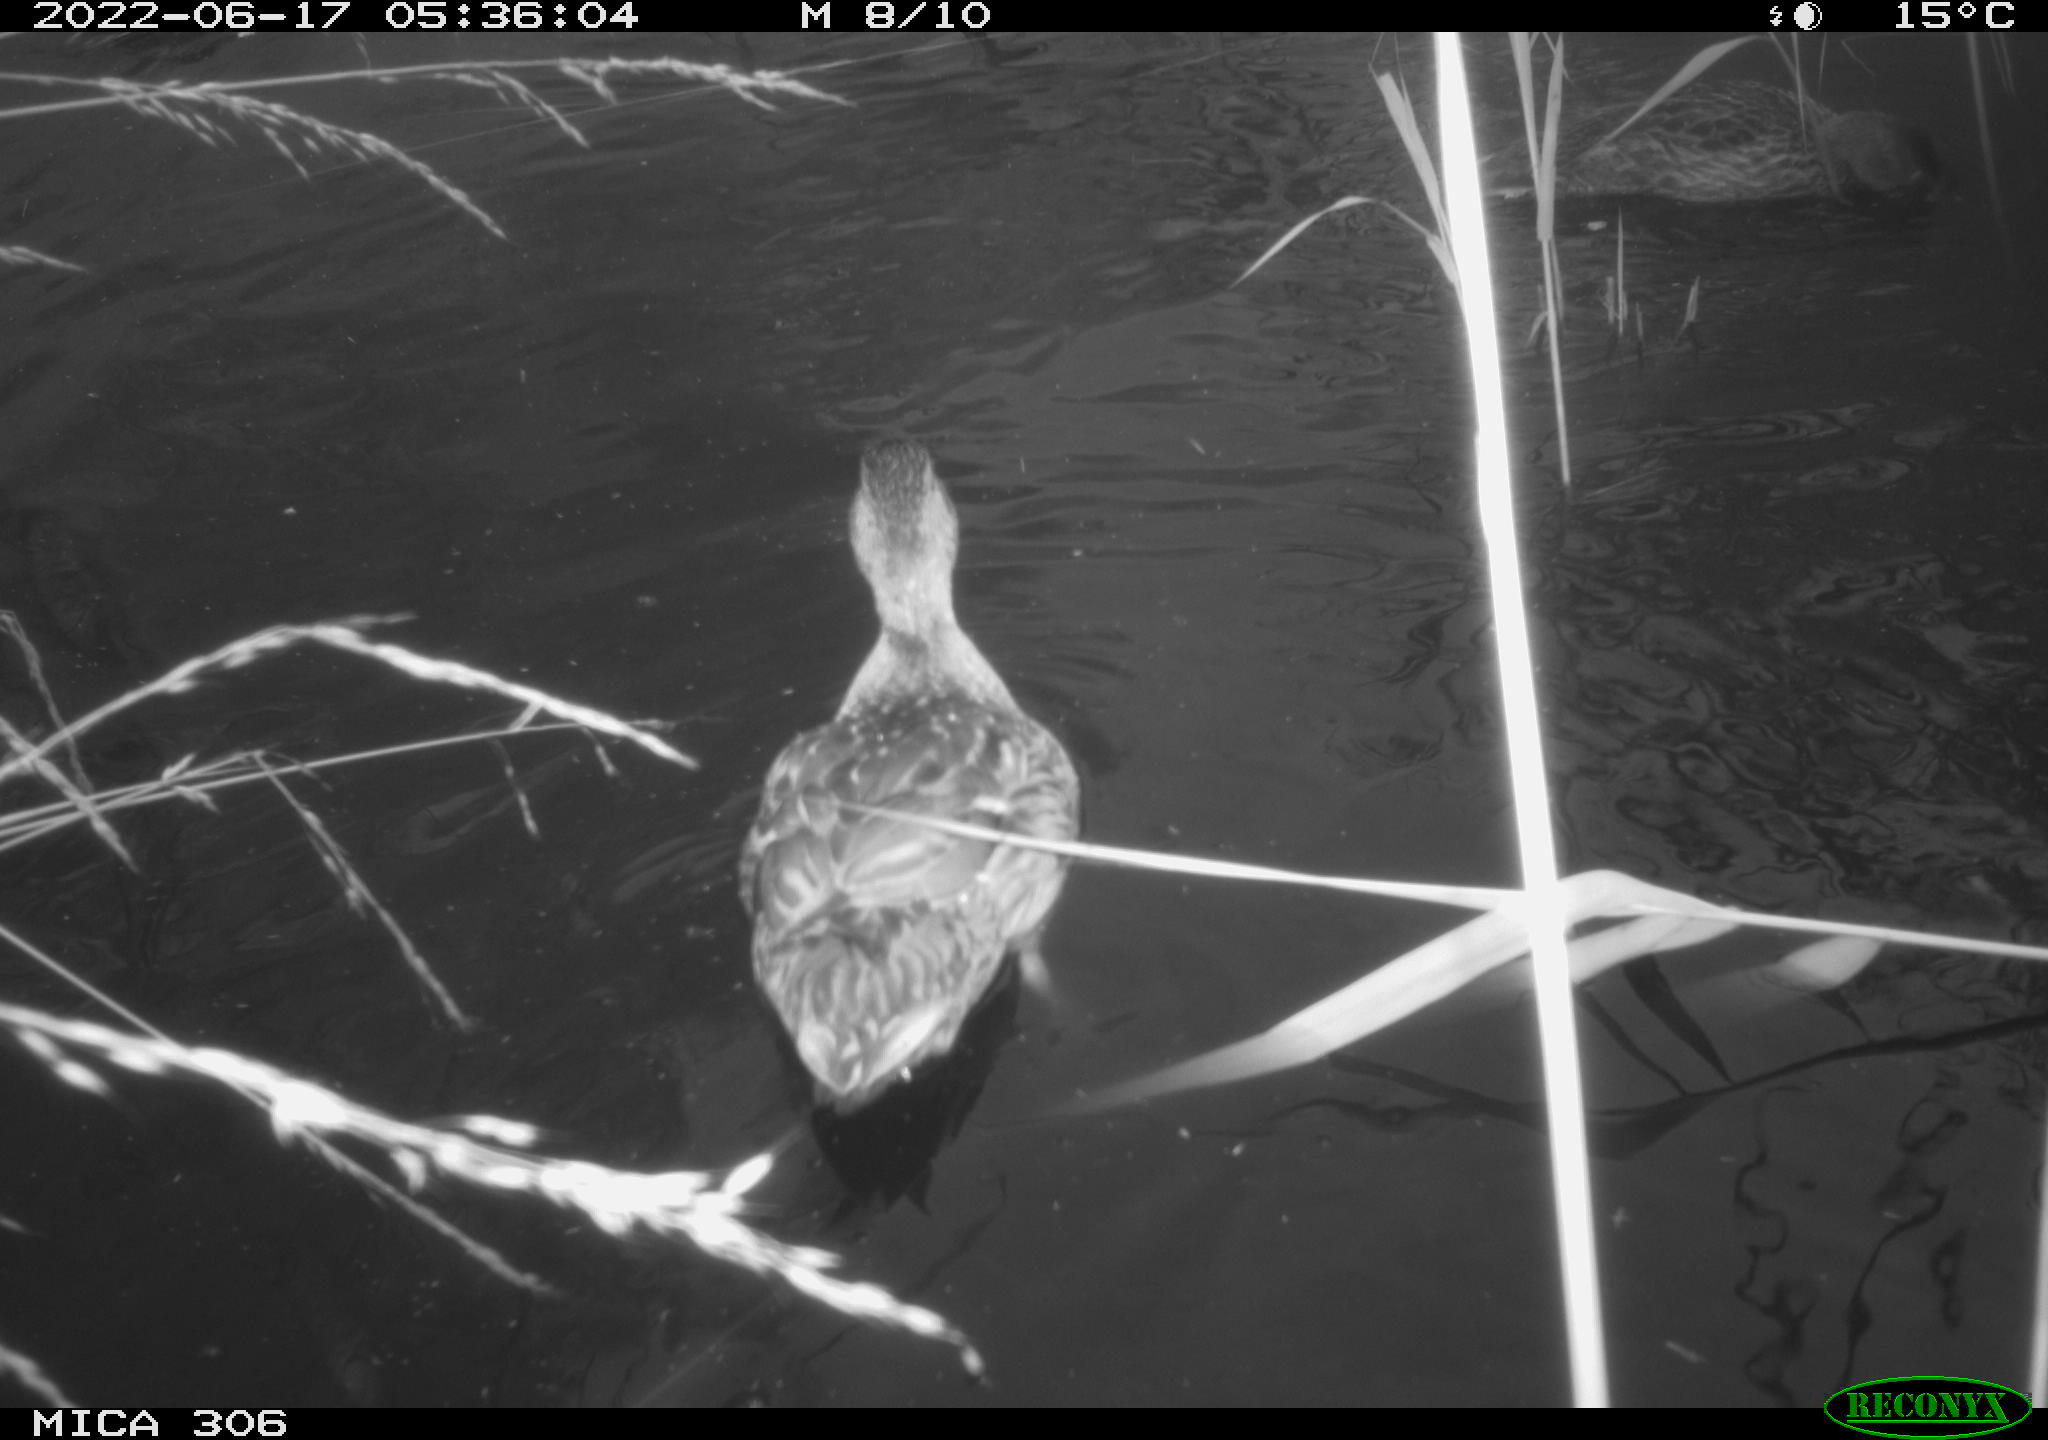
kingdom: Animalia
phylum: Chordata
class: Aves
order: Anseriformes
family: Anatidae
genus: Anas
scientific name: Anas platyrhynchos
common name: Mallard
